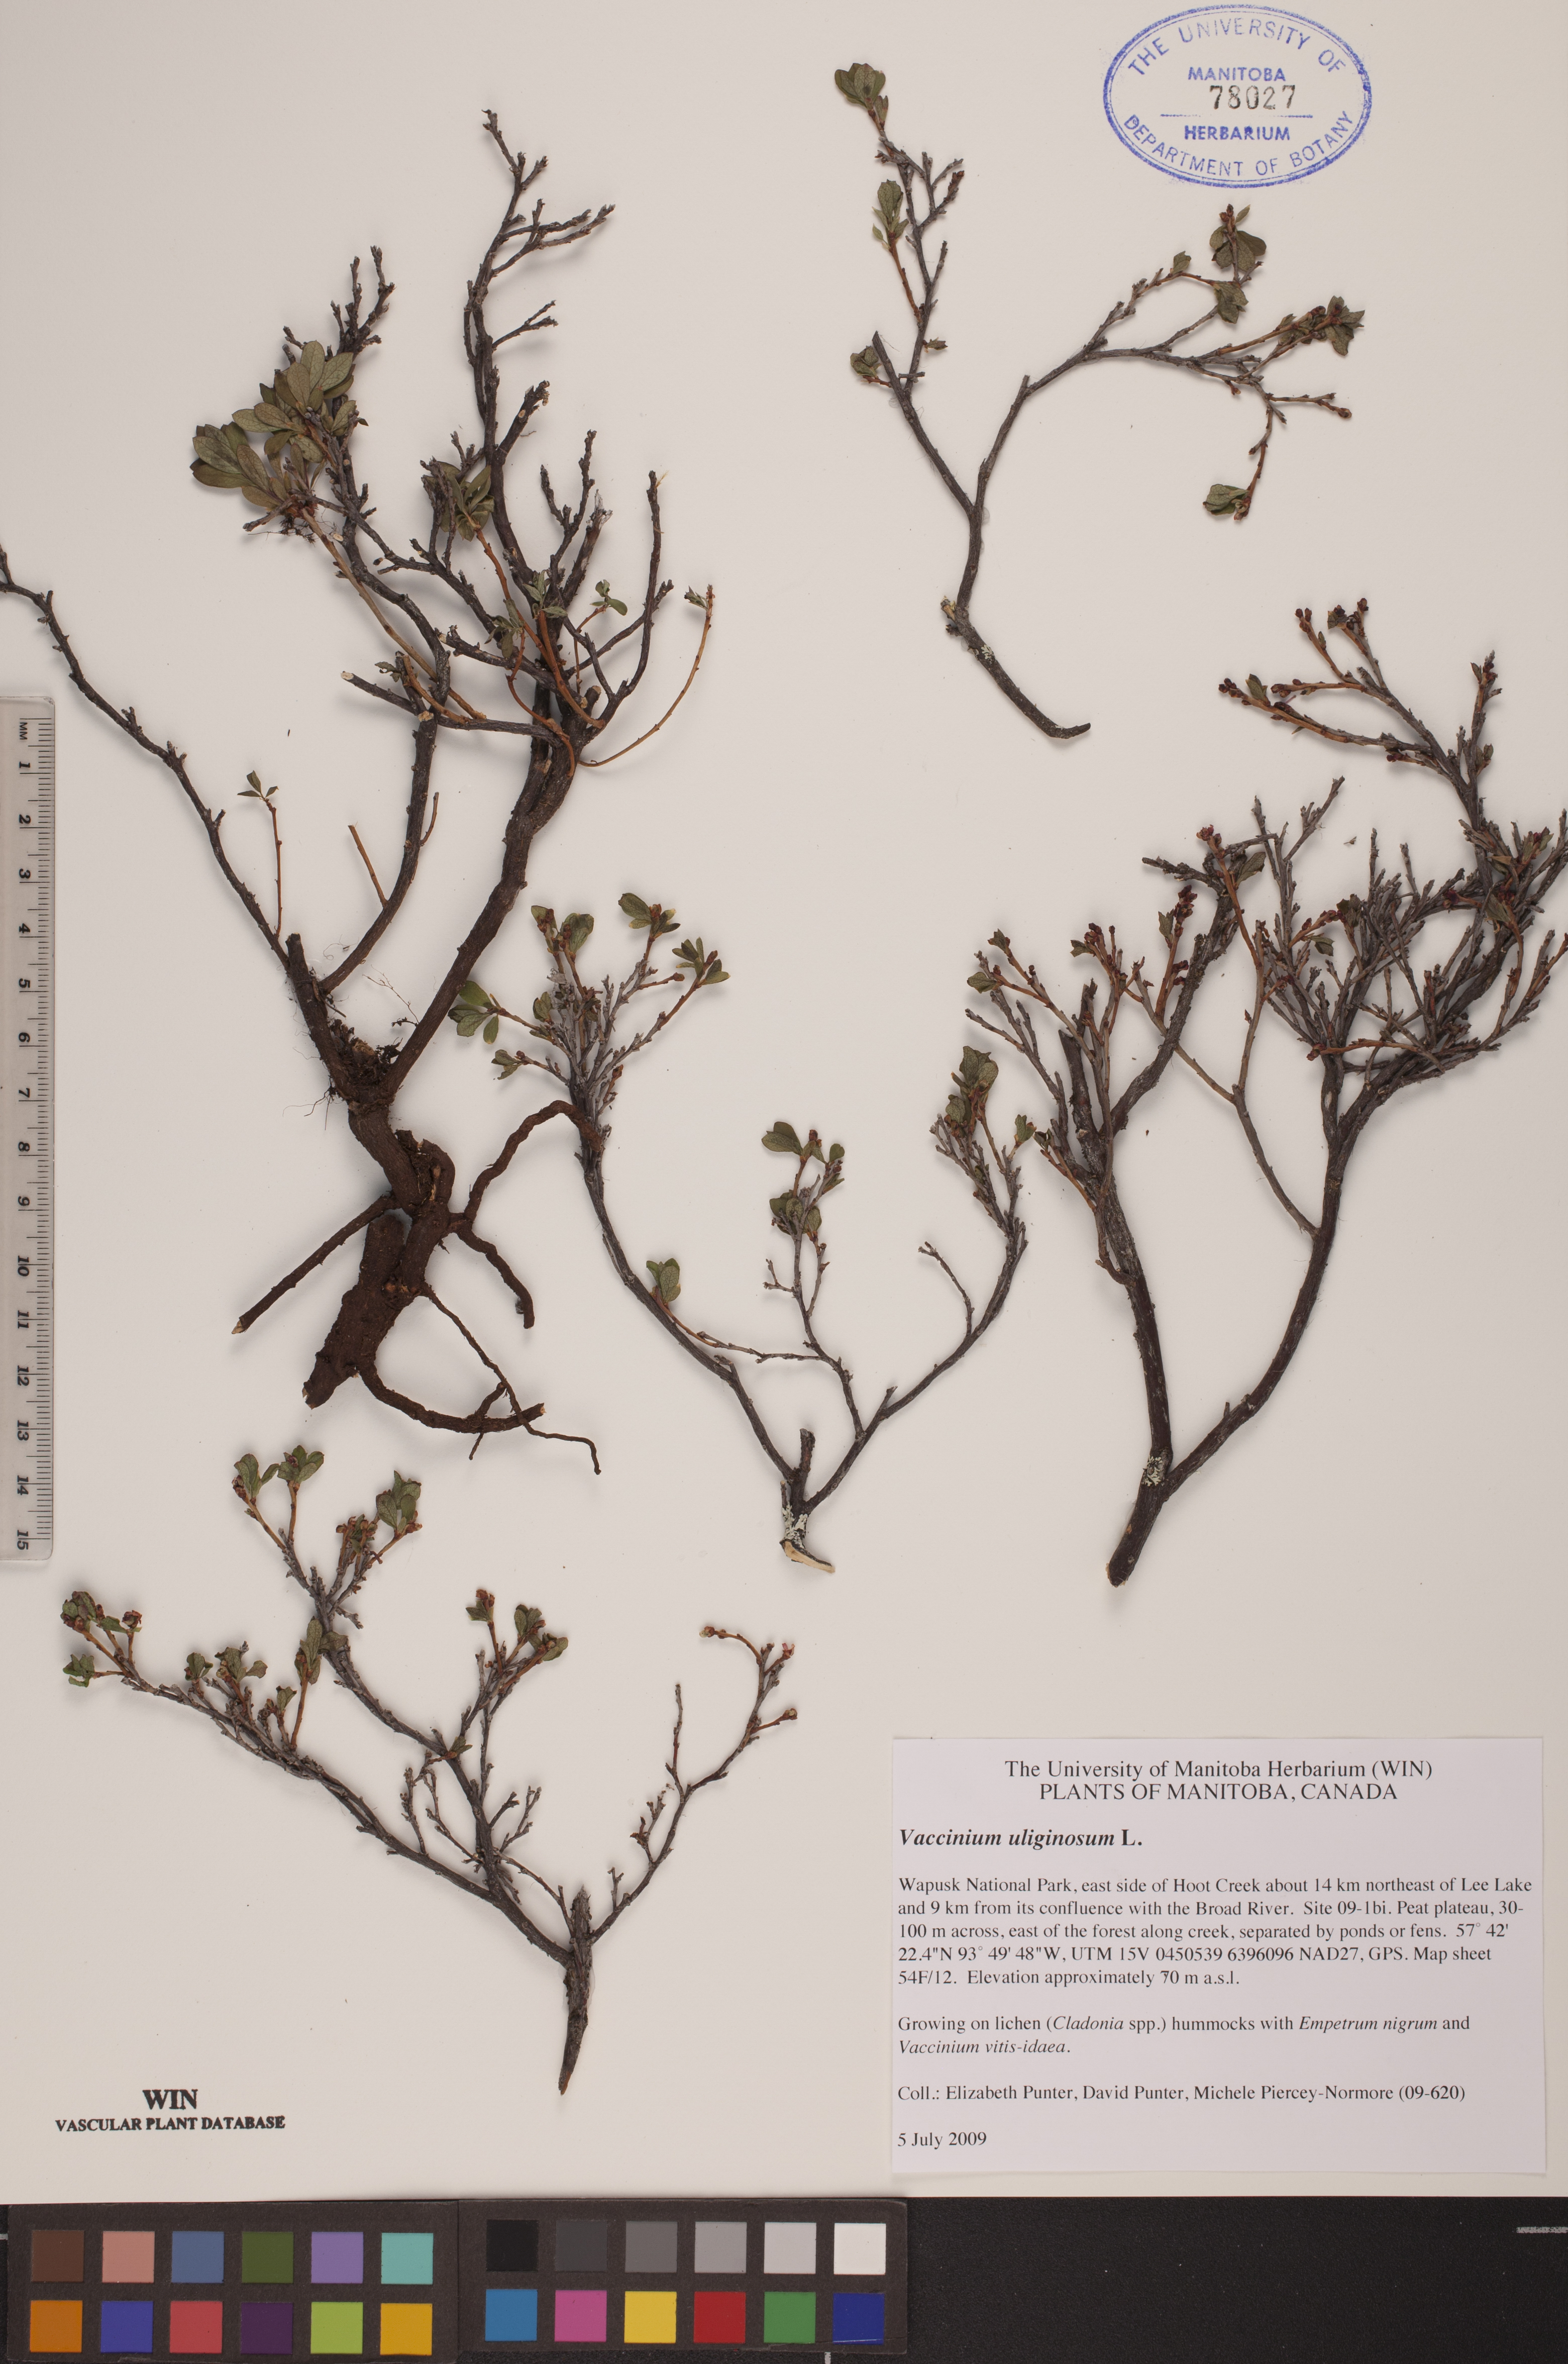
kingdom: Plantae
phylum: Tracheophyta
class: Magnoliopsida
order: Ericales
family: Ericaceae
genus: Vaccinium
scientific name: Vaccinium uliginosum
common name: Bog bilberry
